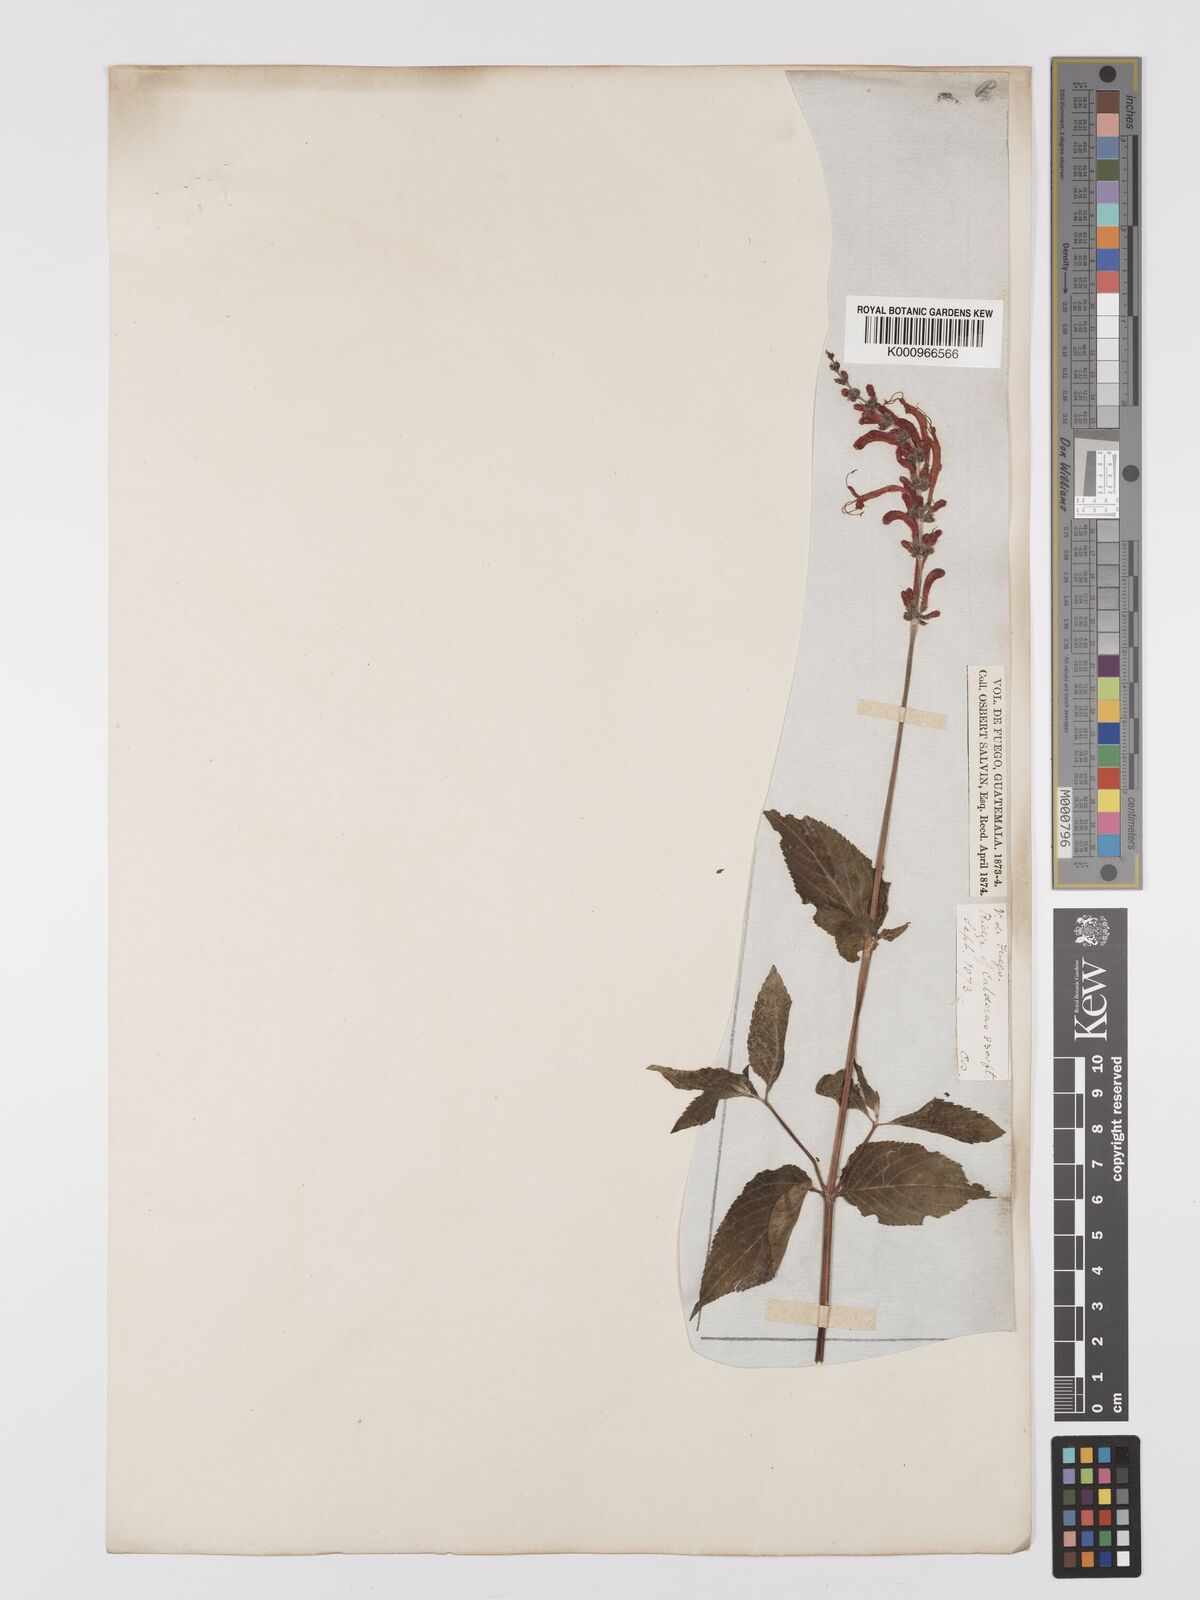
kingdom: Plantae
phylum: Tracheophyta
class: Magnoliopsida
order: Lamiales
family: Lamiaceae
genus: Salvia
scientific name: Salvia cinnabarina
